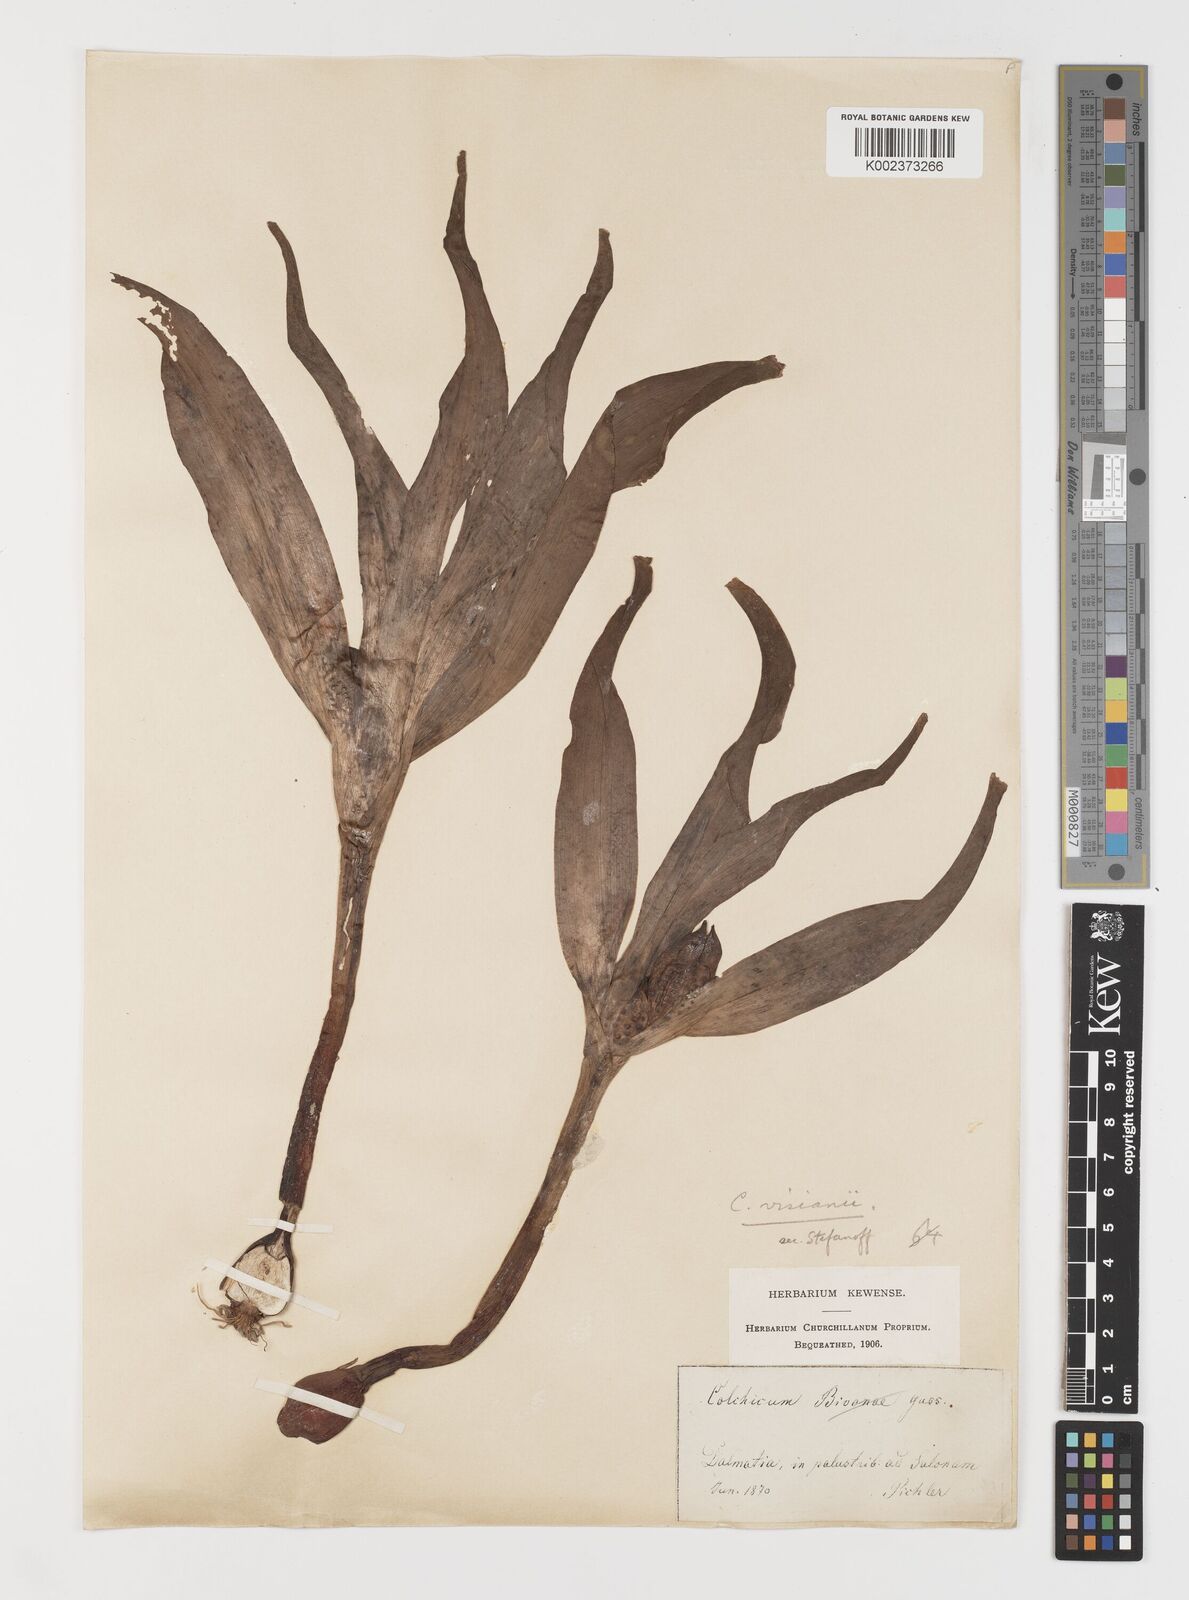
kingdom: Plantae
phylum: Tracheophyta
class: Liliopsida
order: Liliales
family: Colchicaceae
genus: Colchicum
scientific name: Colchicum haynaldii
